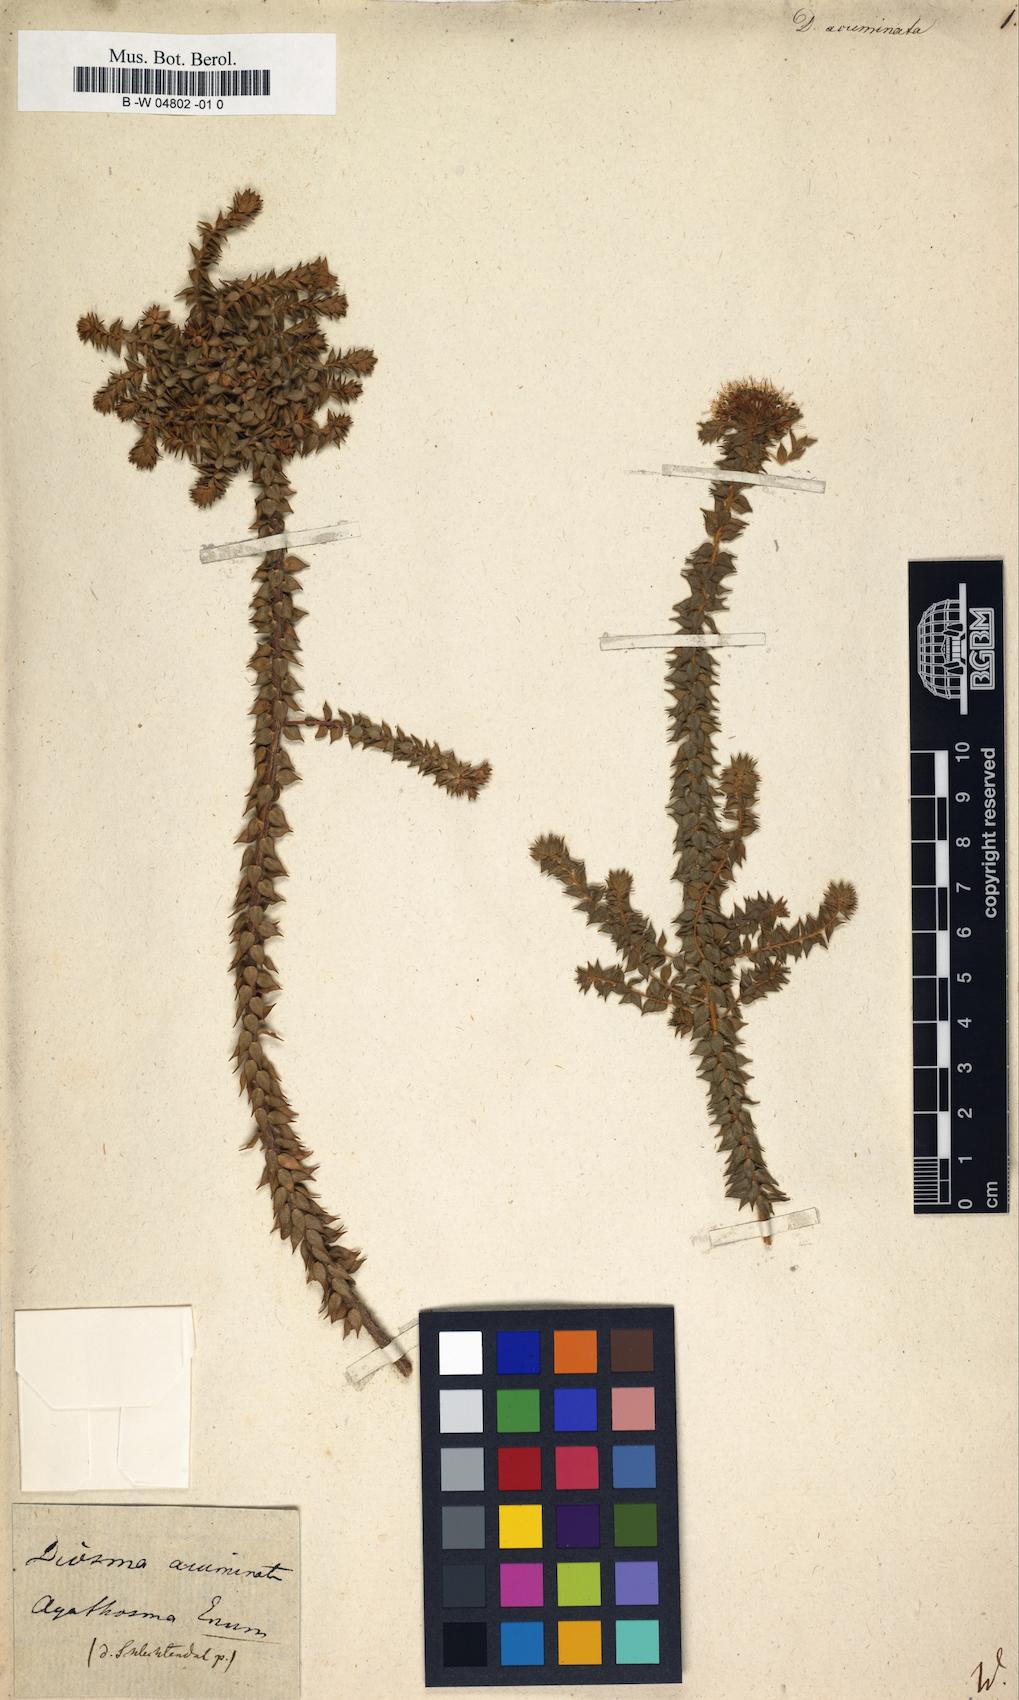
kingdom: Plantae
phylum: Tracheophyta
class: Magnoliopsida
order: Sapindales
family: Rutaceae
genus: Agathosma
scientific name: Agathosma imbricata
